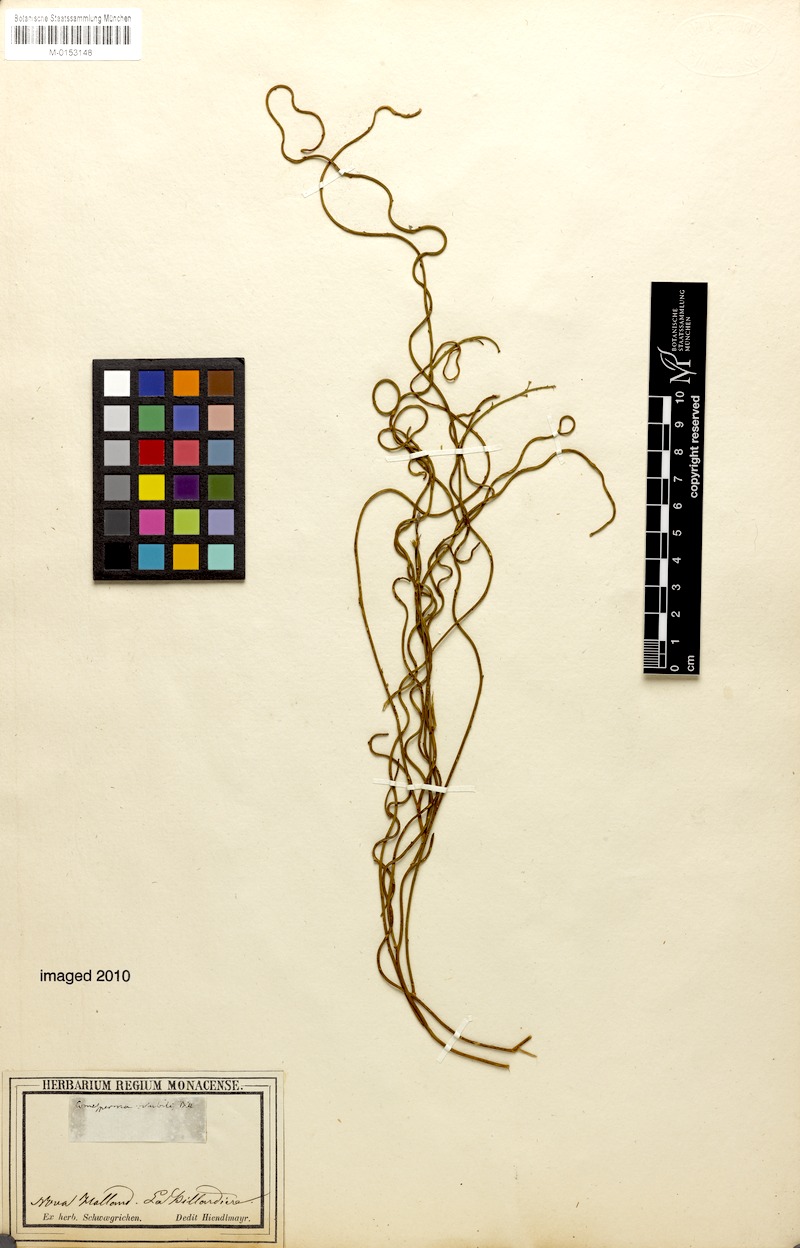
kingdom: Plantae
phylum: Tracheophyta
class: Magnoliopsida
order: Fabales
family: Polygalaceae
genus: Comesperma
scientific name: Comesperma volubile
